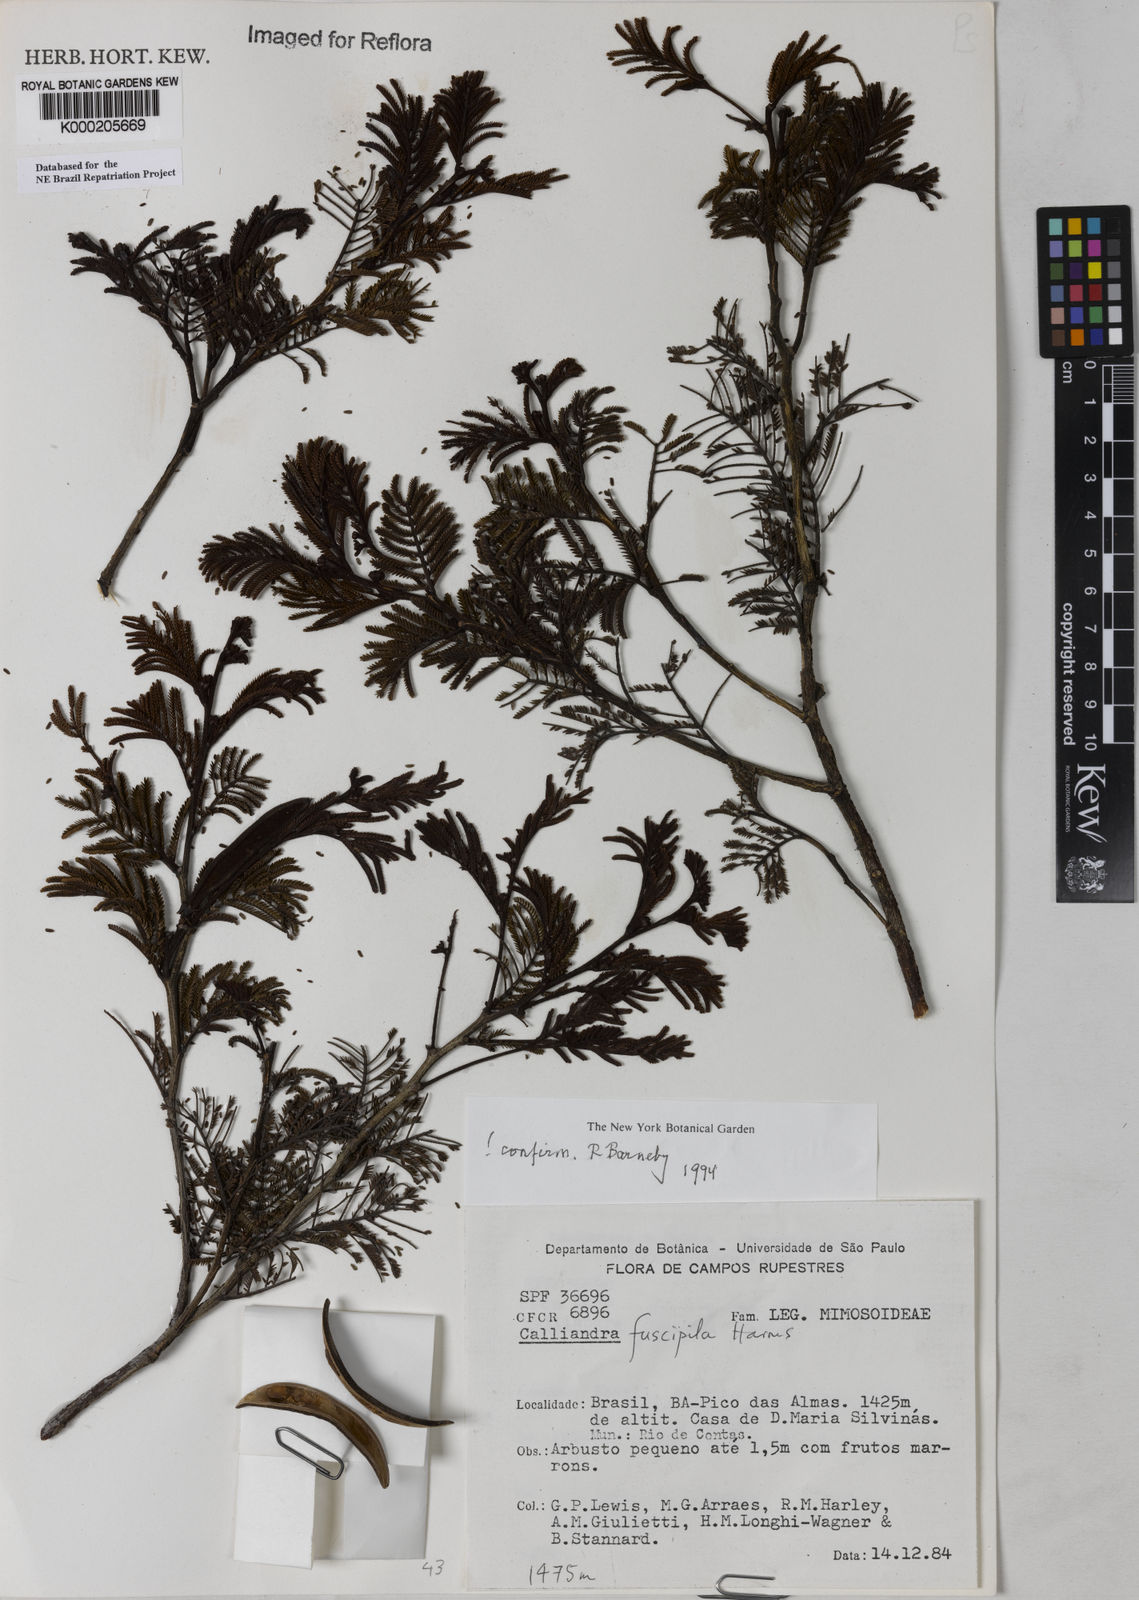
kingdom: Plantae
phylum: Tracheophyta
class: Magnoliopsida
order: Fabales
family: Fabaceae
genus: Calliandra
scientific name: Calliandra fuscipila
